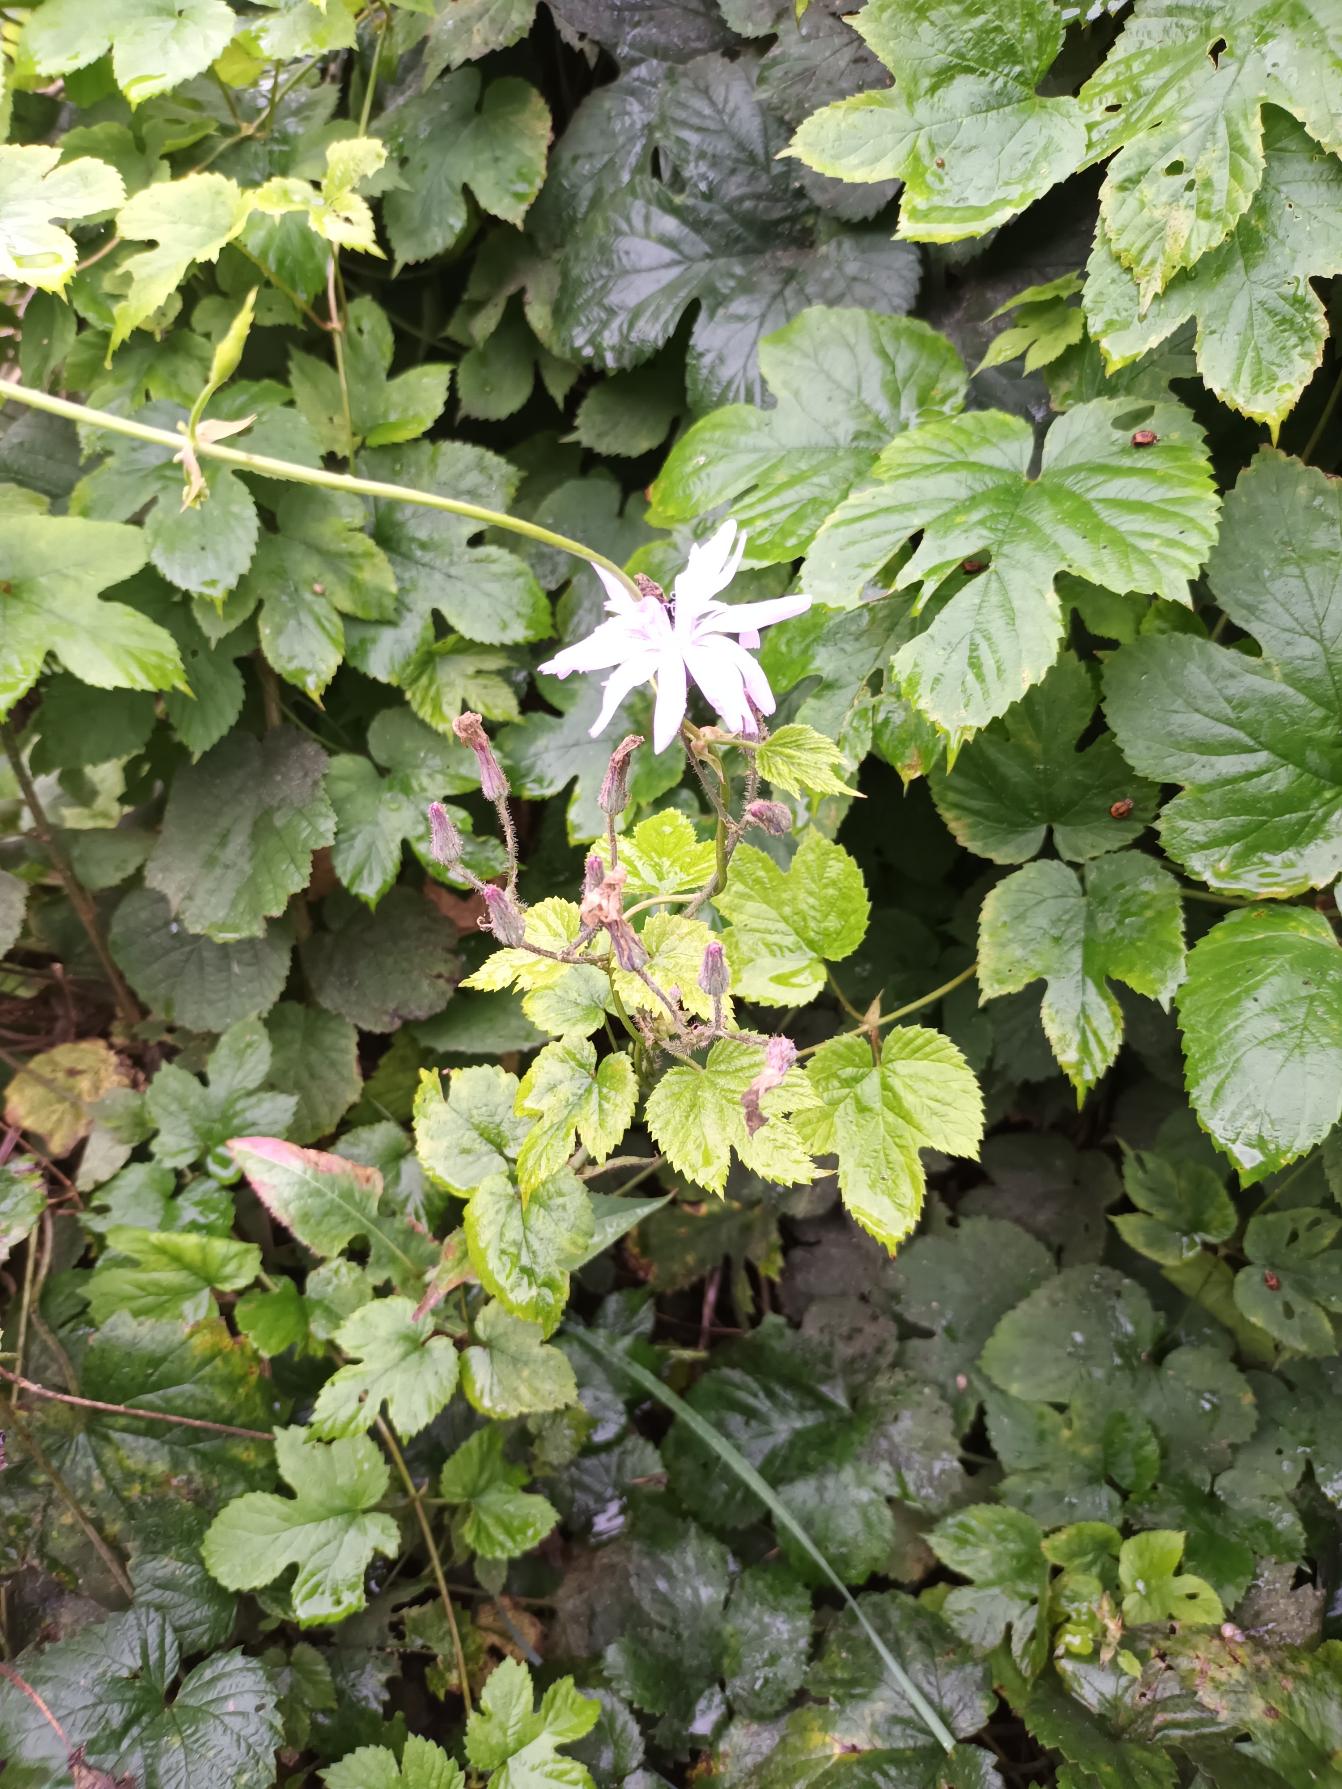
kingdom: Plantae
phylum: Tracheophyta
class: Magnoliopsida
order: Asterales
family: Asteraceae
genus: Lactuca
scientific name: Lactuca macrophylla
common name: Kæmpe-salat
